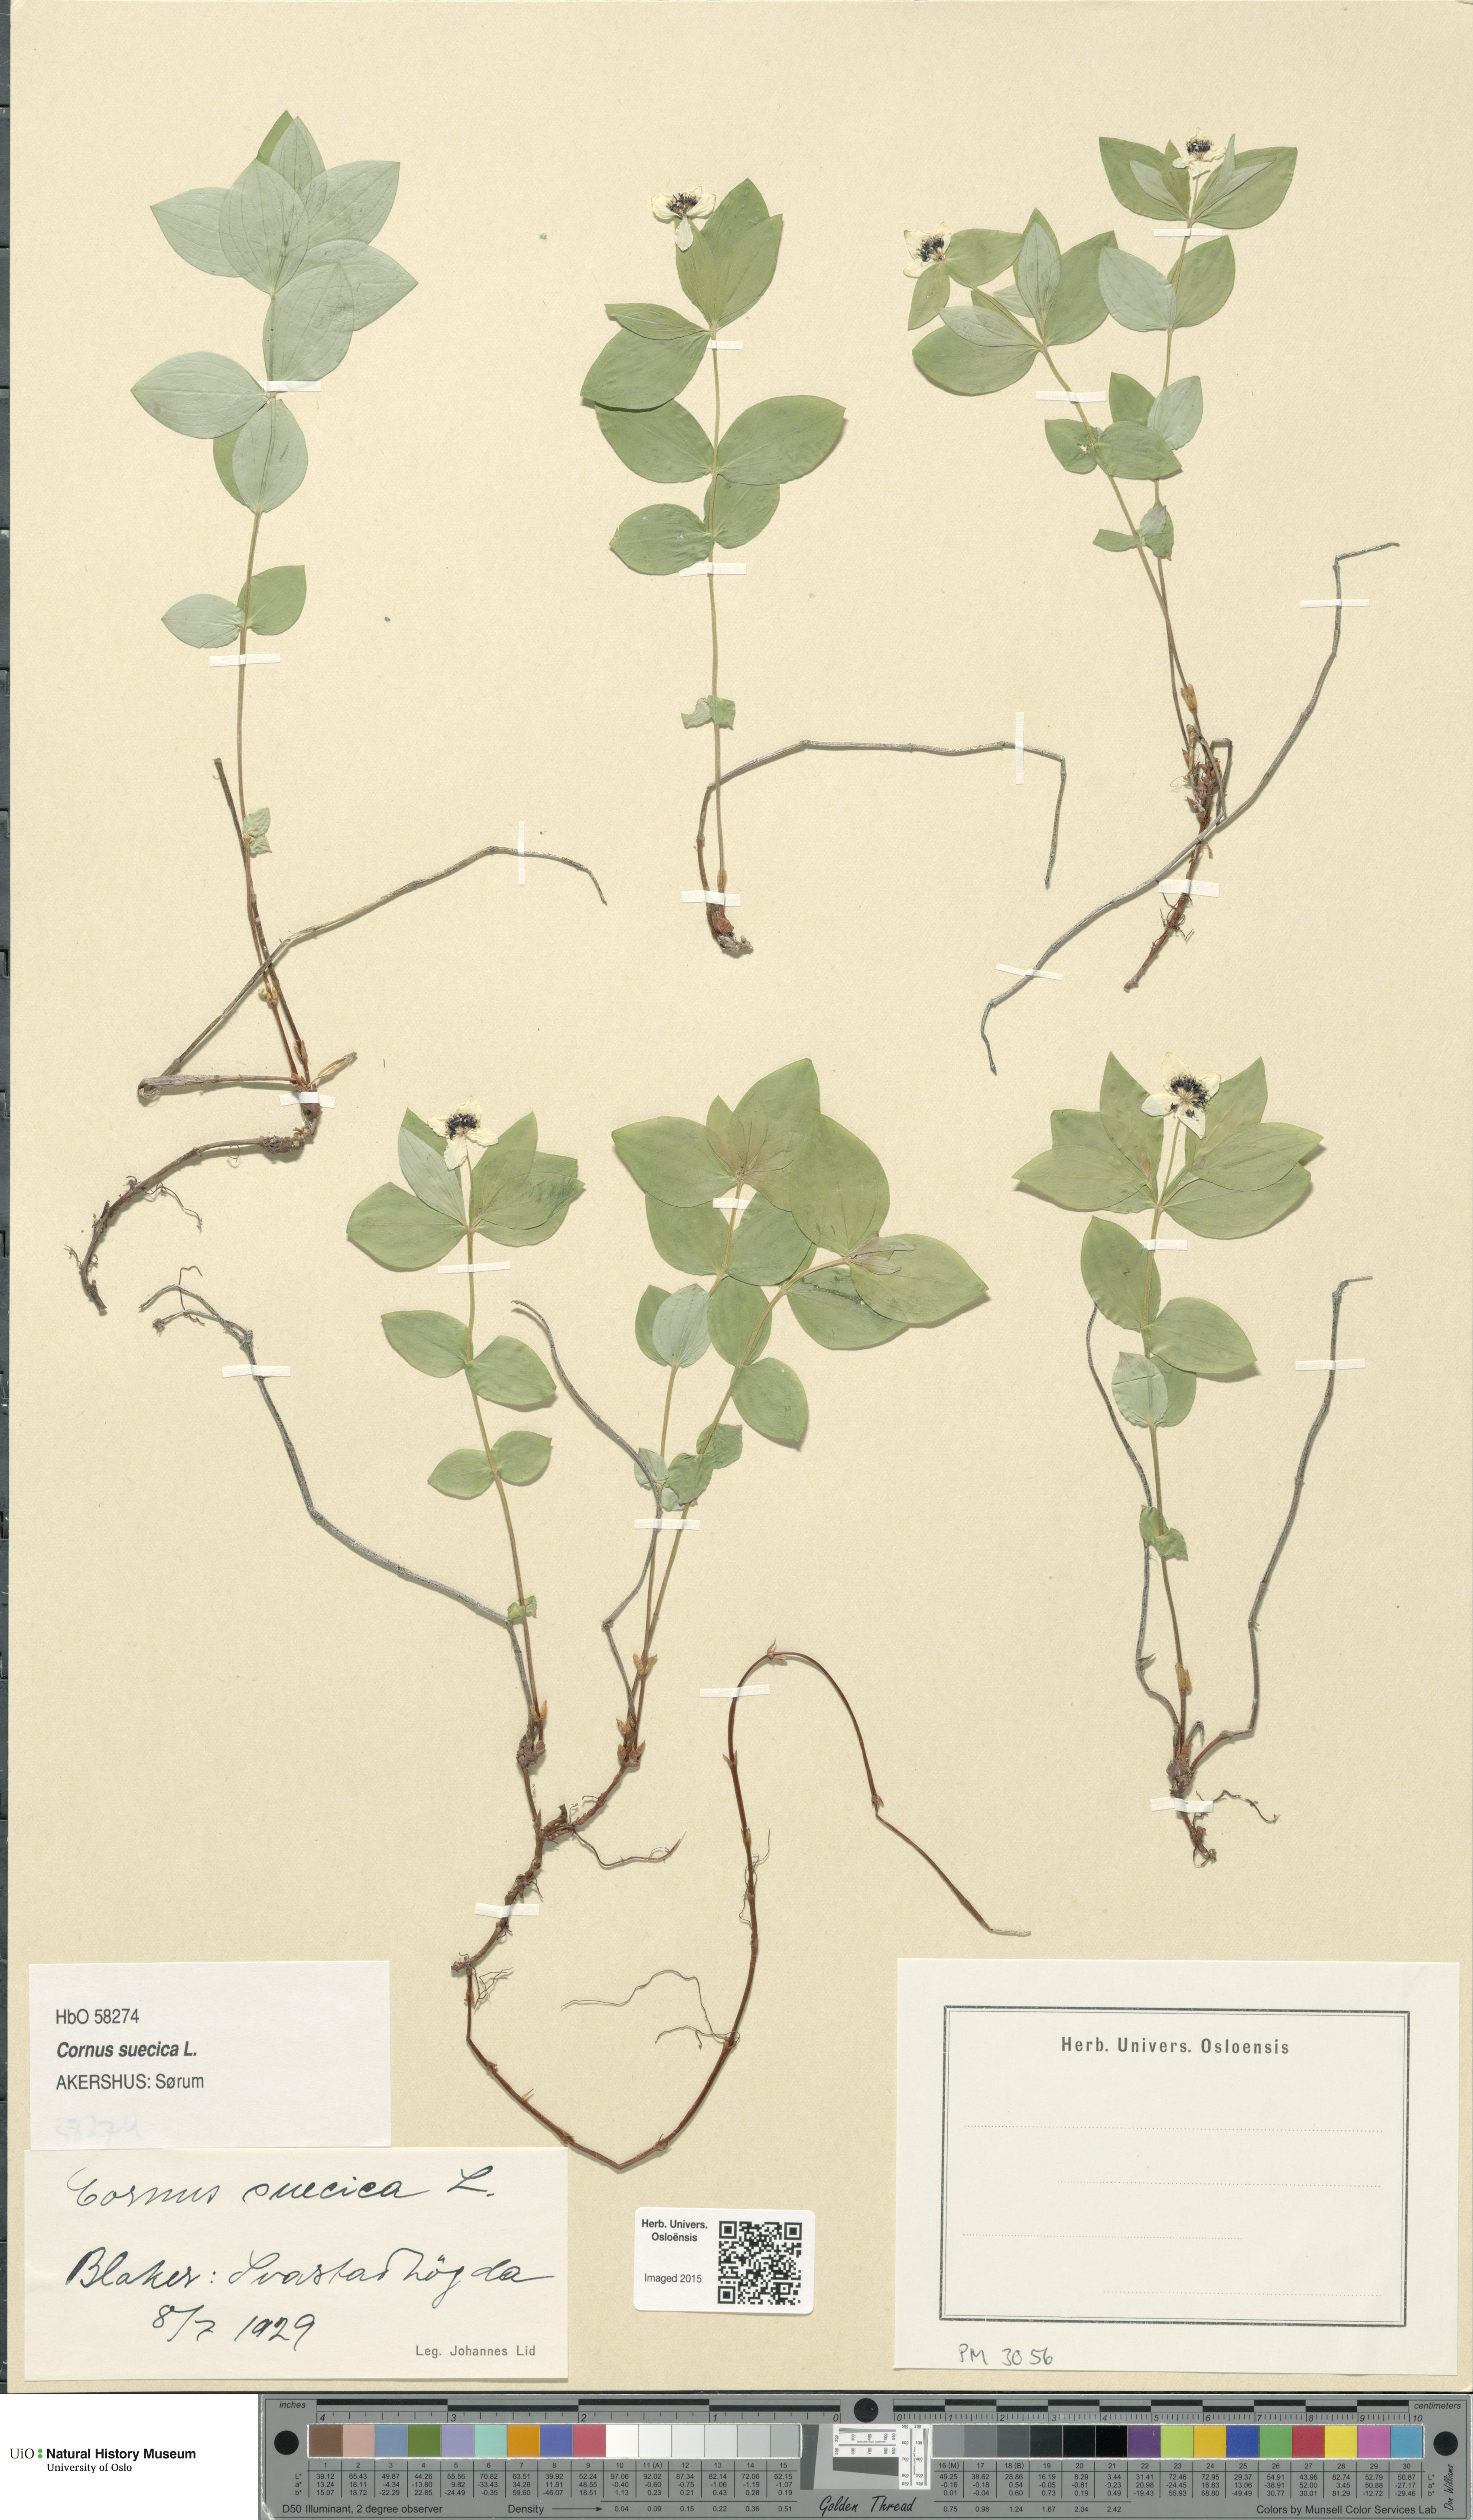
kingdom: Plantae
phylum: Tracheophyta
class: Magnoliopsida
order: Cornales
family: Cornaceae
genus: Cornus
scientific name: Cornus suecica
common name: Dwarf cornel
